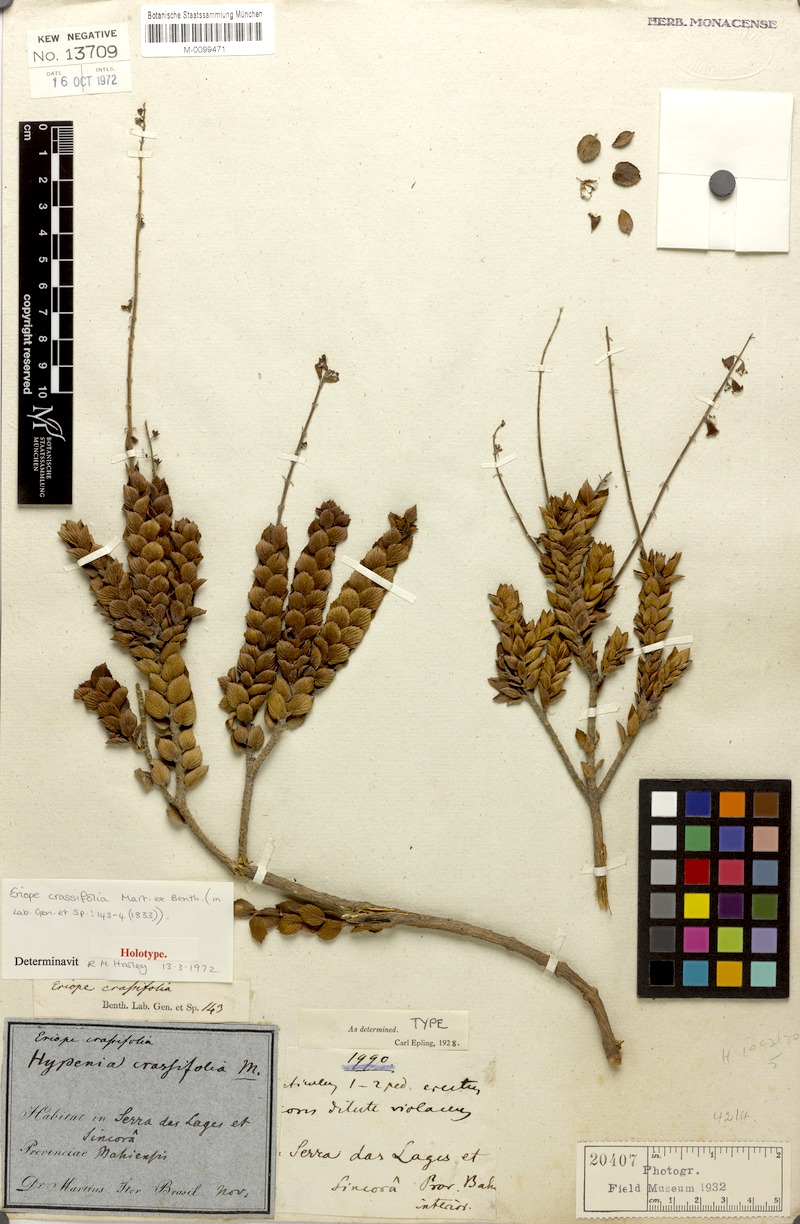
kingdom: Plantae
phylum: Tracheophyta
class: Magnoliopsida
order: Lamiales
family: Lamiaceae
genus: Eriope
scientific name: Eriope crassifolia
